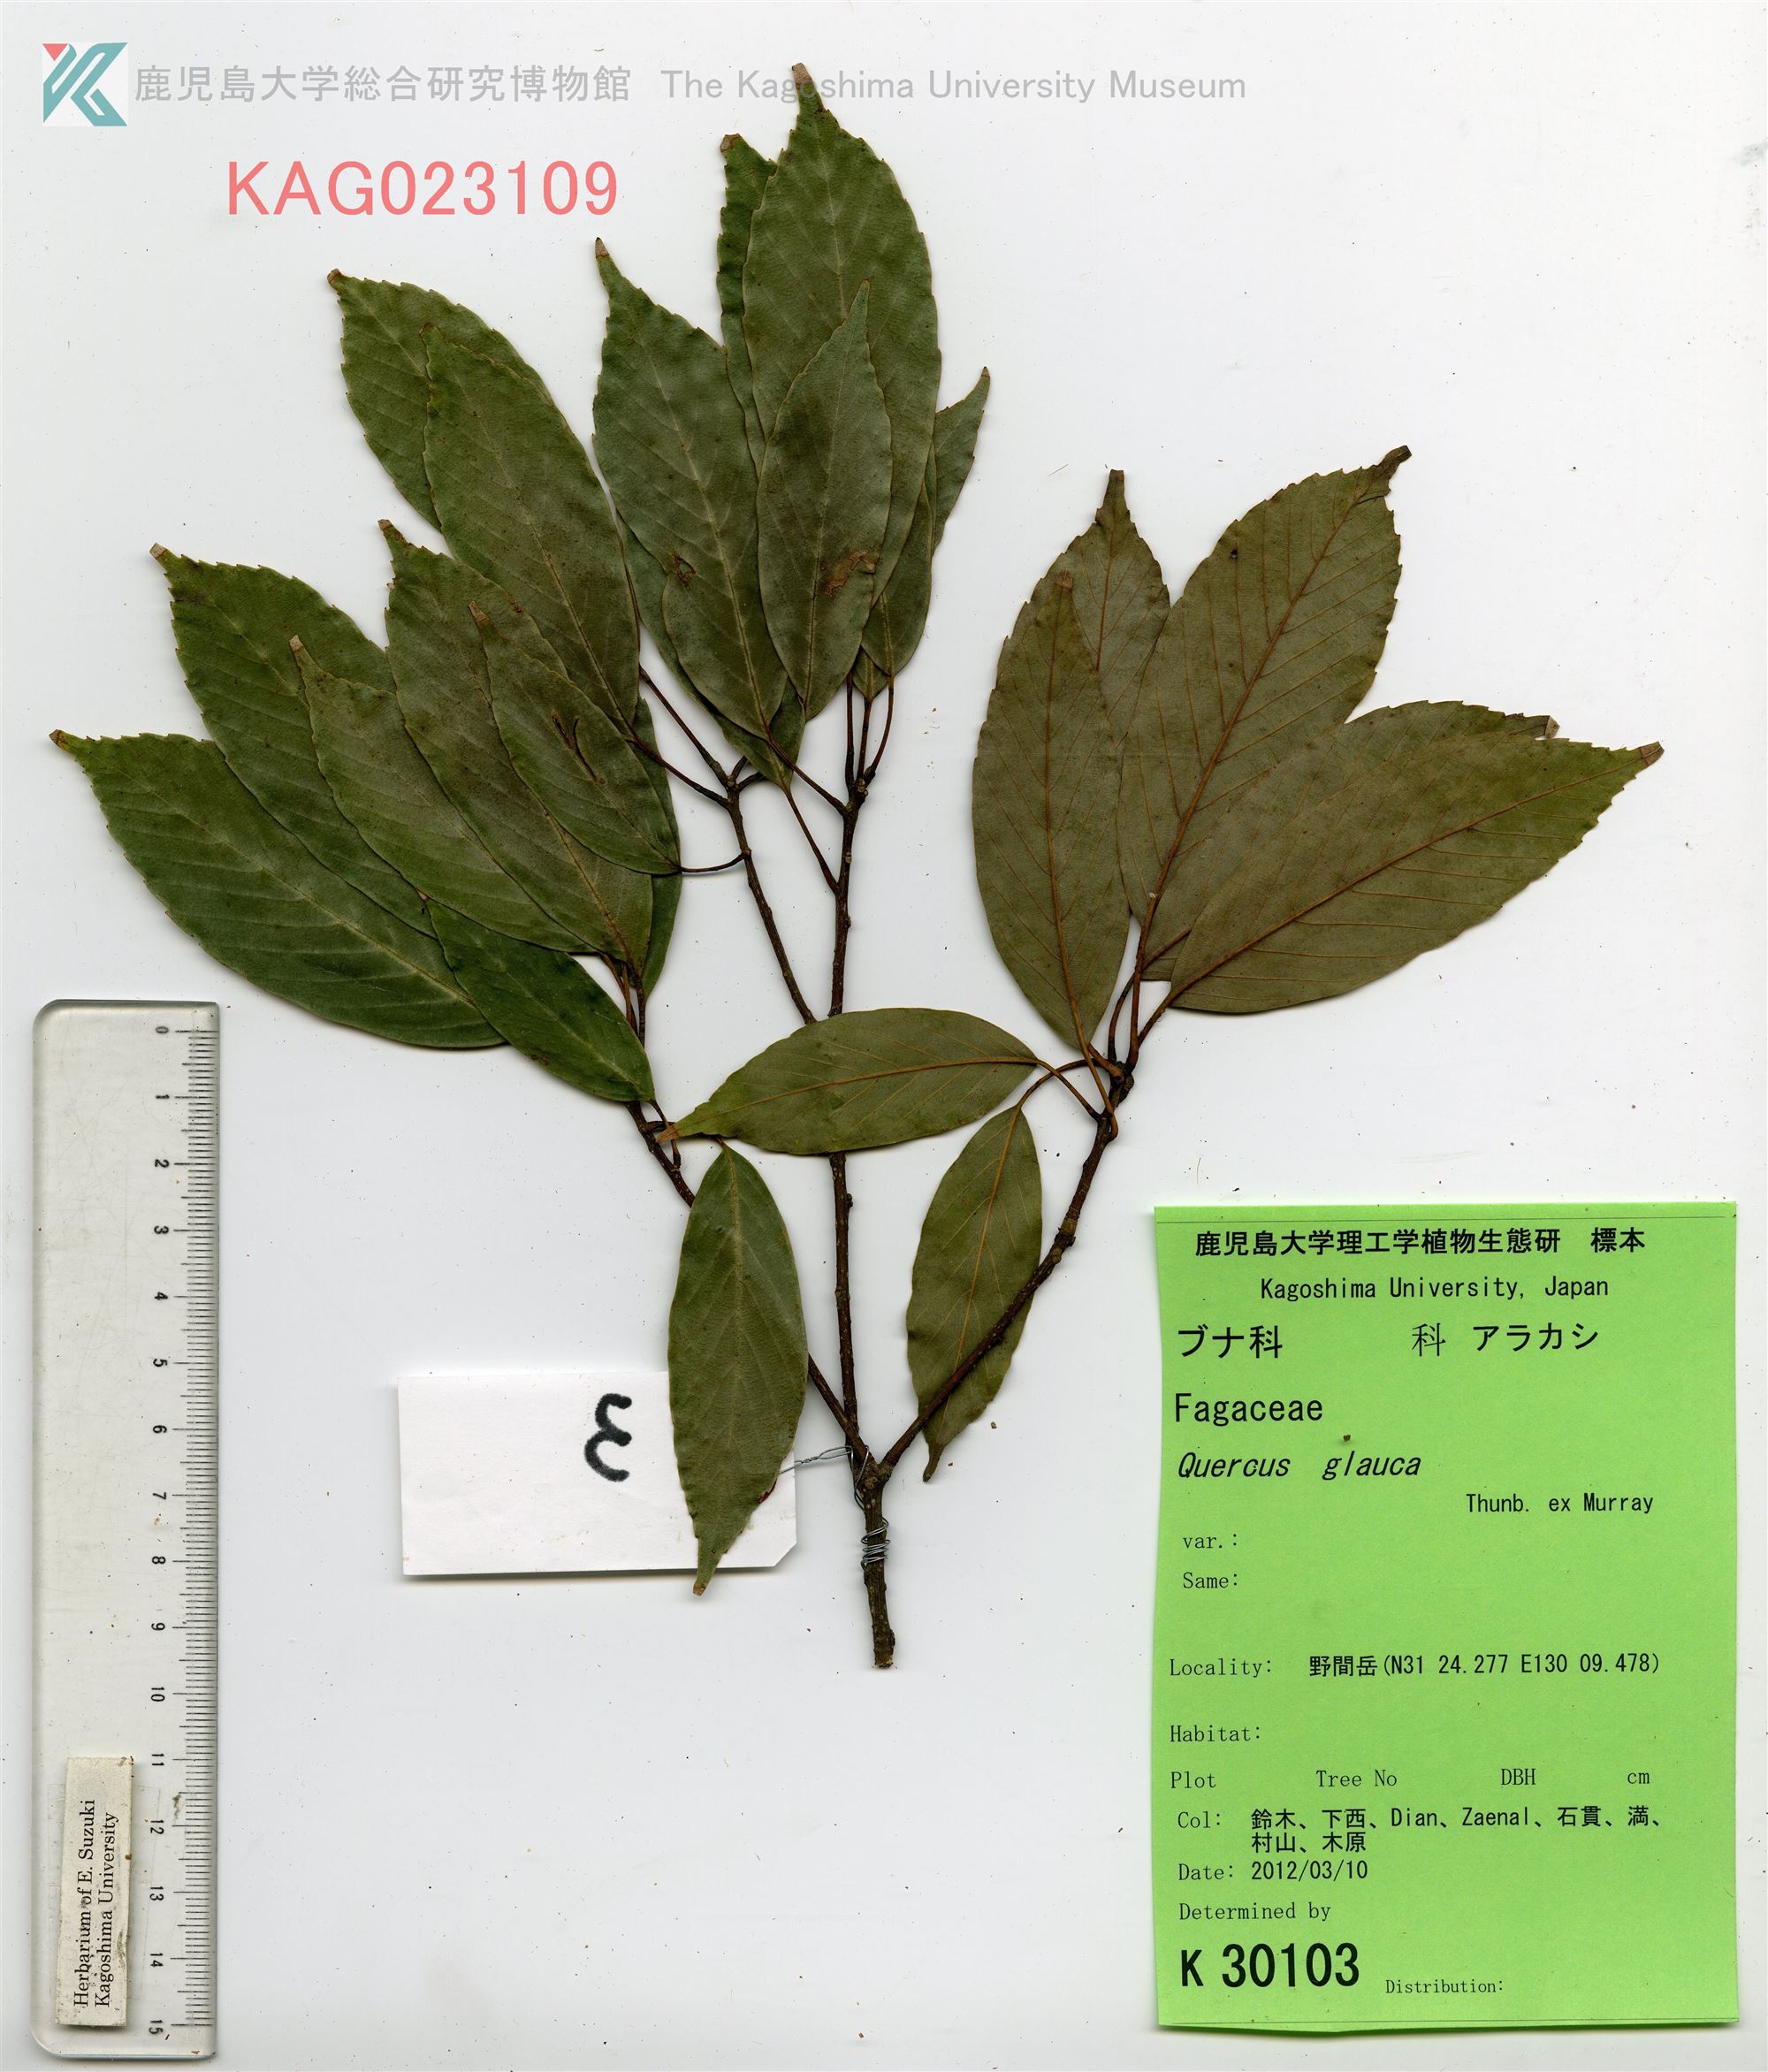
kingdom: Plantae
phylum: Tracheophyta
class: Magnoliopsida
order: Fagales
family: Fagaceae
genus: Quercus
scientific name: Quercus glauca
